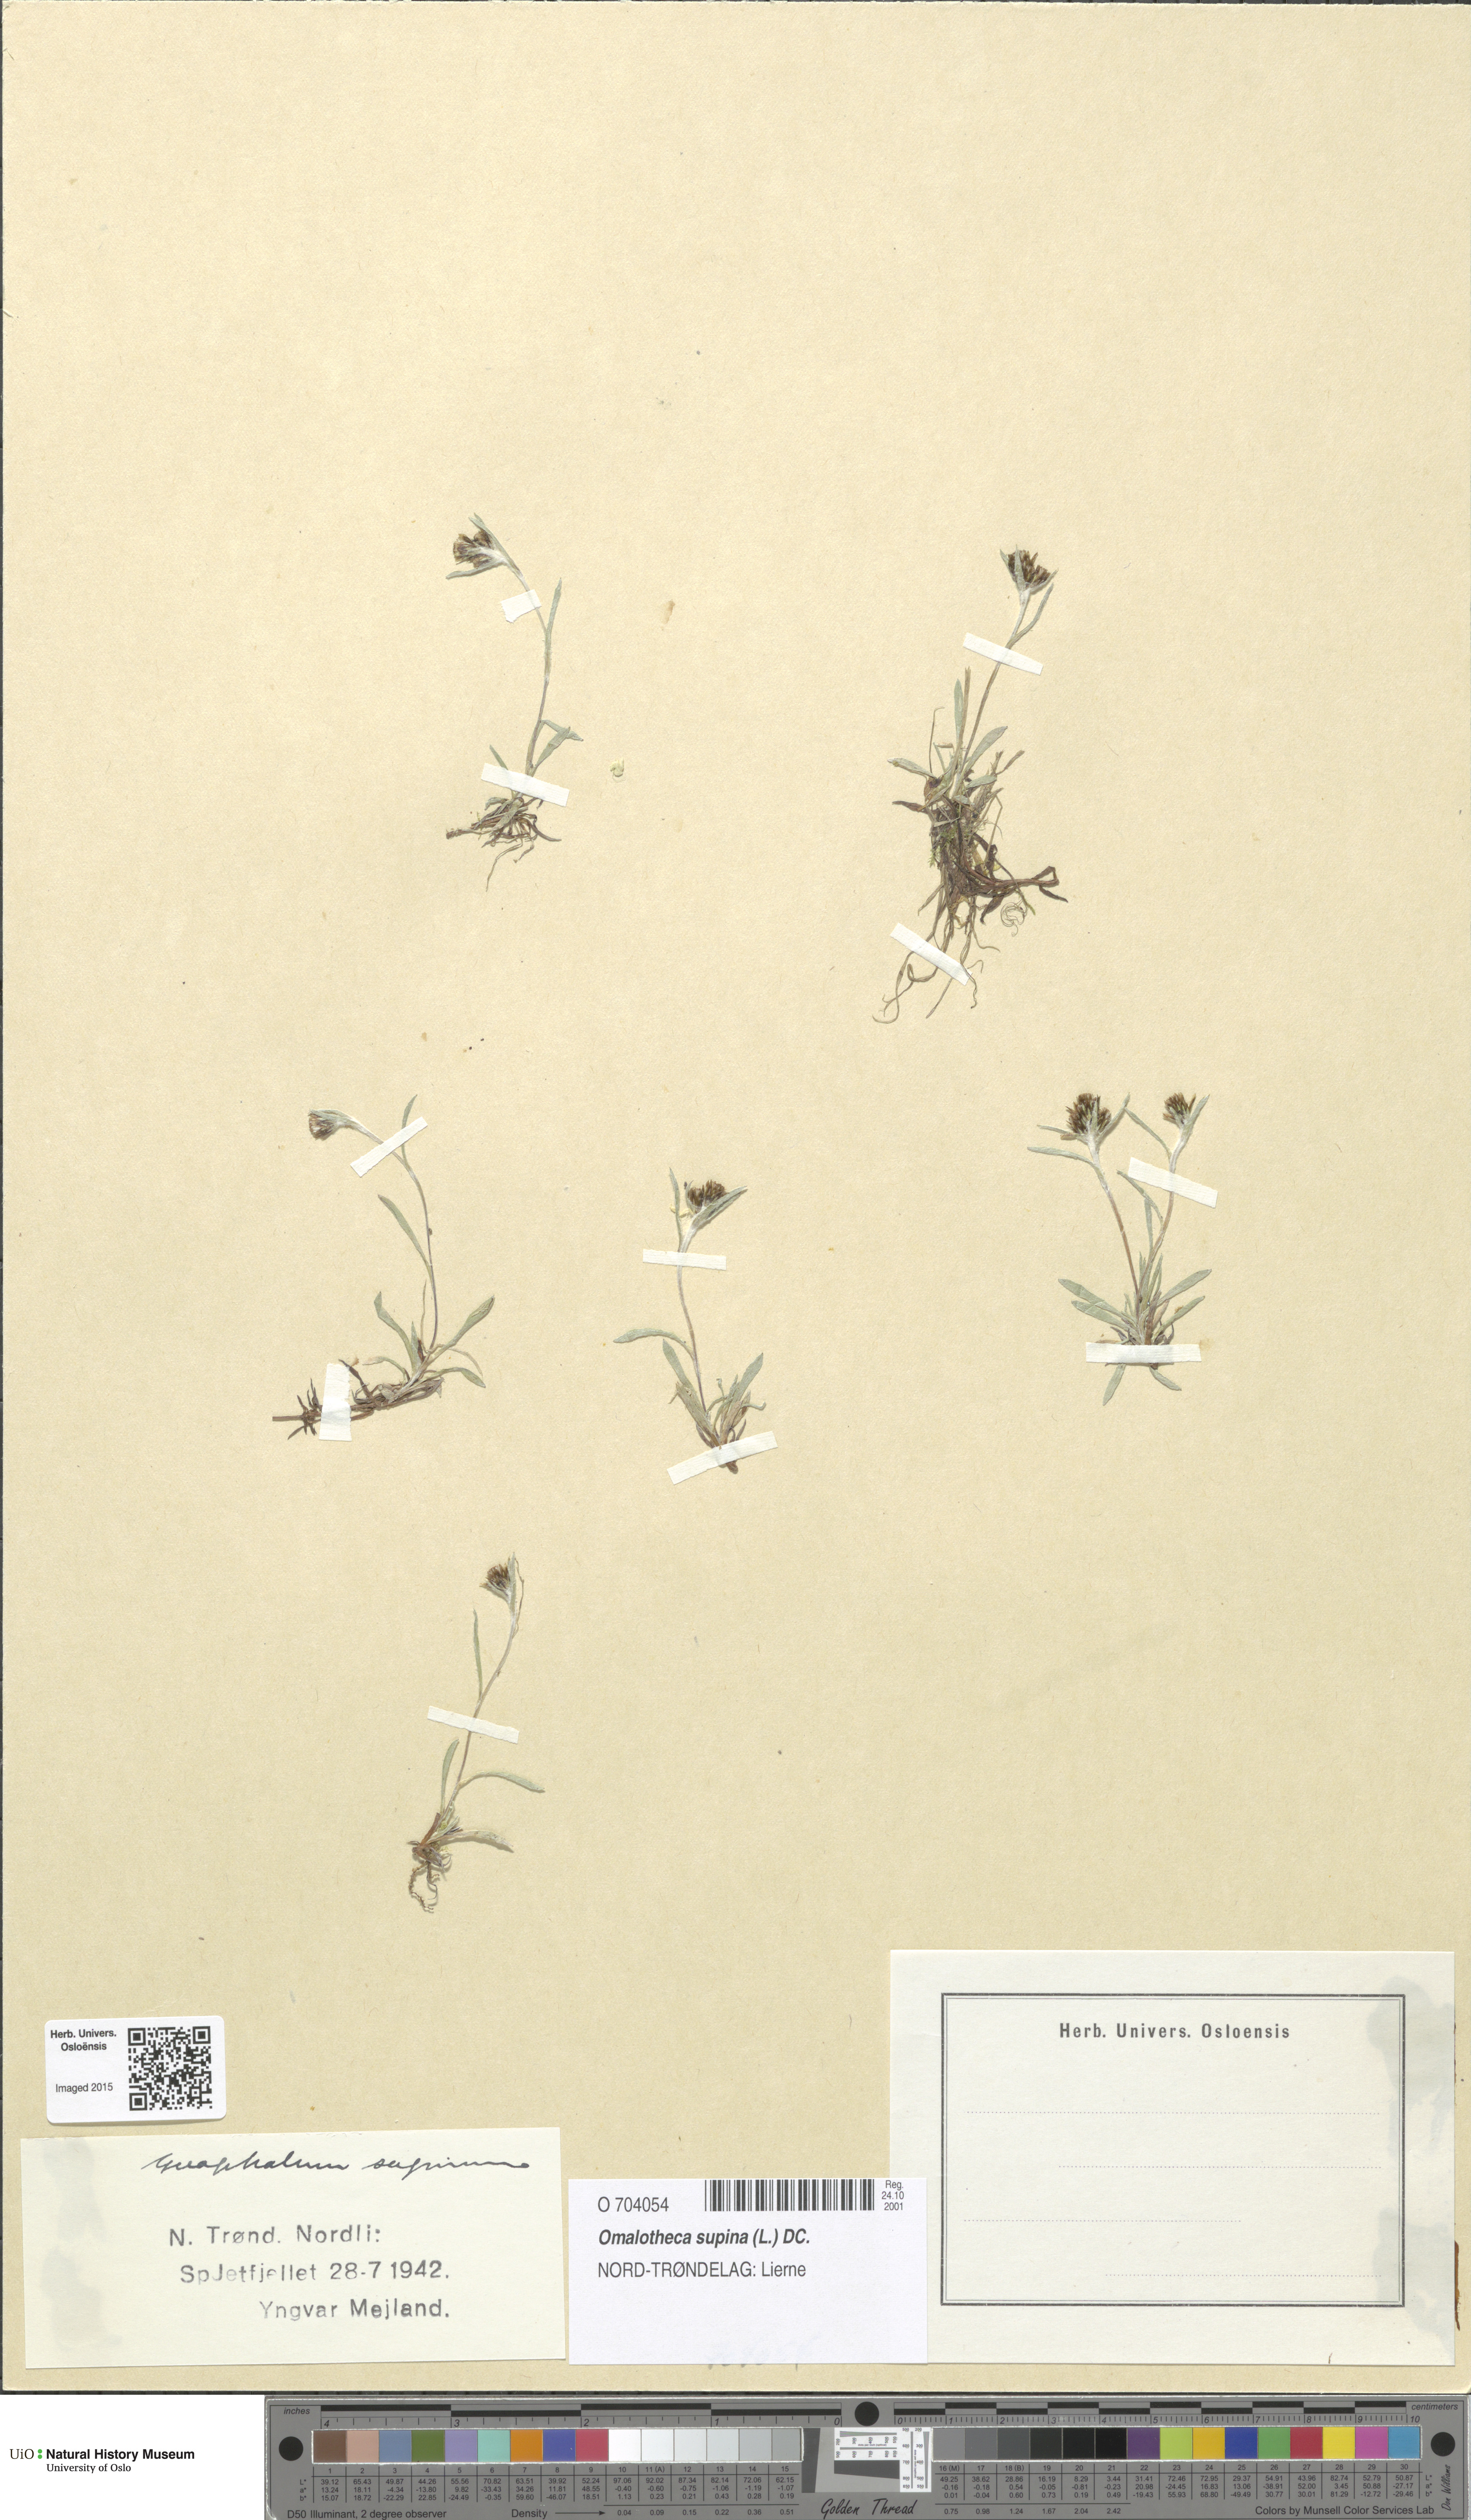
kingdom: Plantae
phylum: Tracheophyta
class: Magnoliopsida
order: Asterales
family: Asteraceae
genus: Omalotheca
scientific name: Omalotheca supina
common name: Alpine arctic-cudweed
